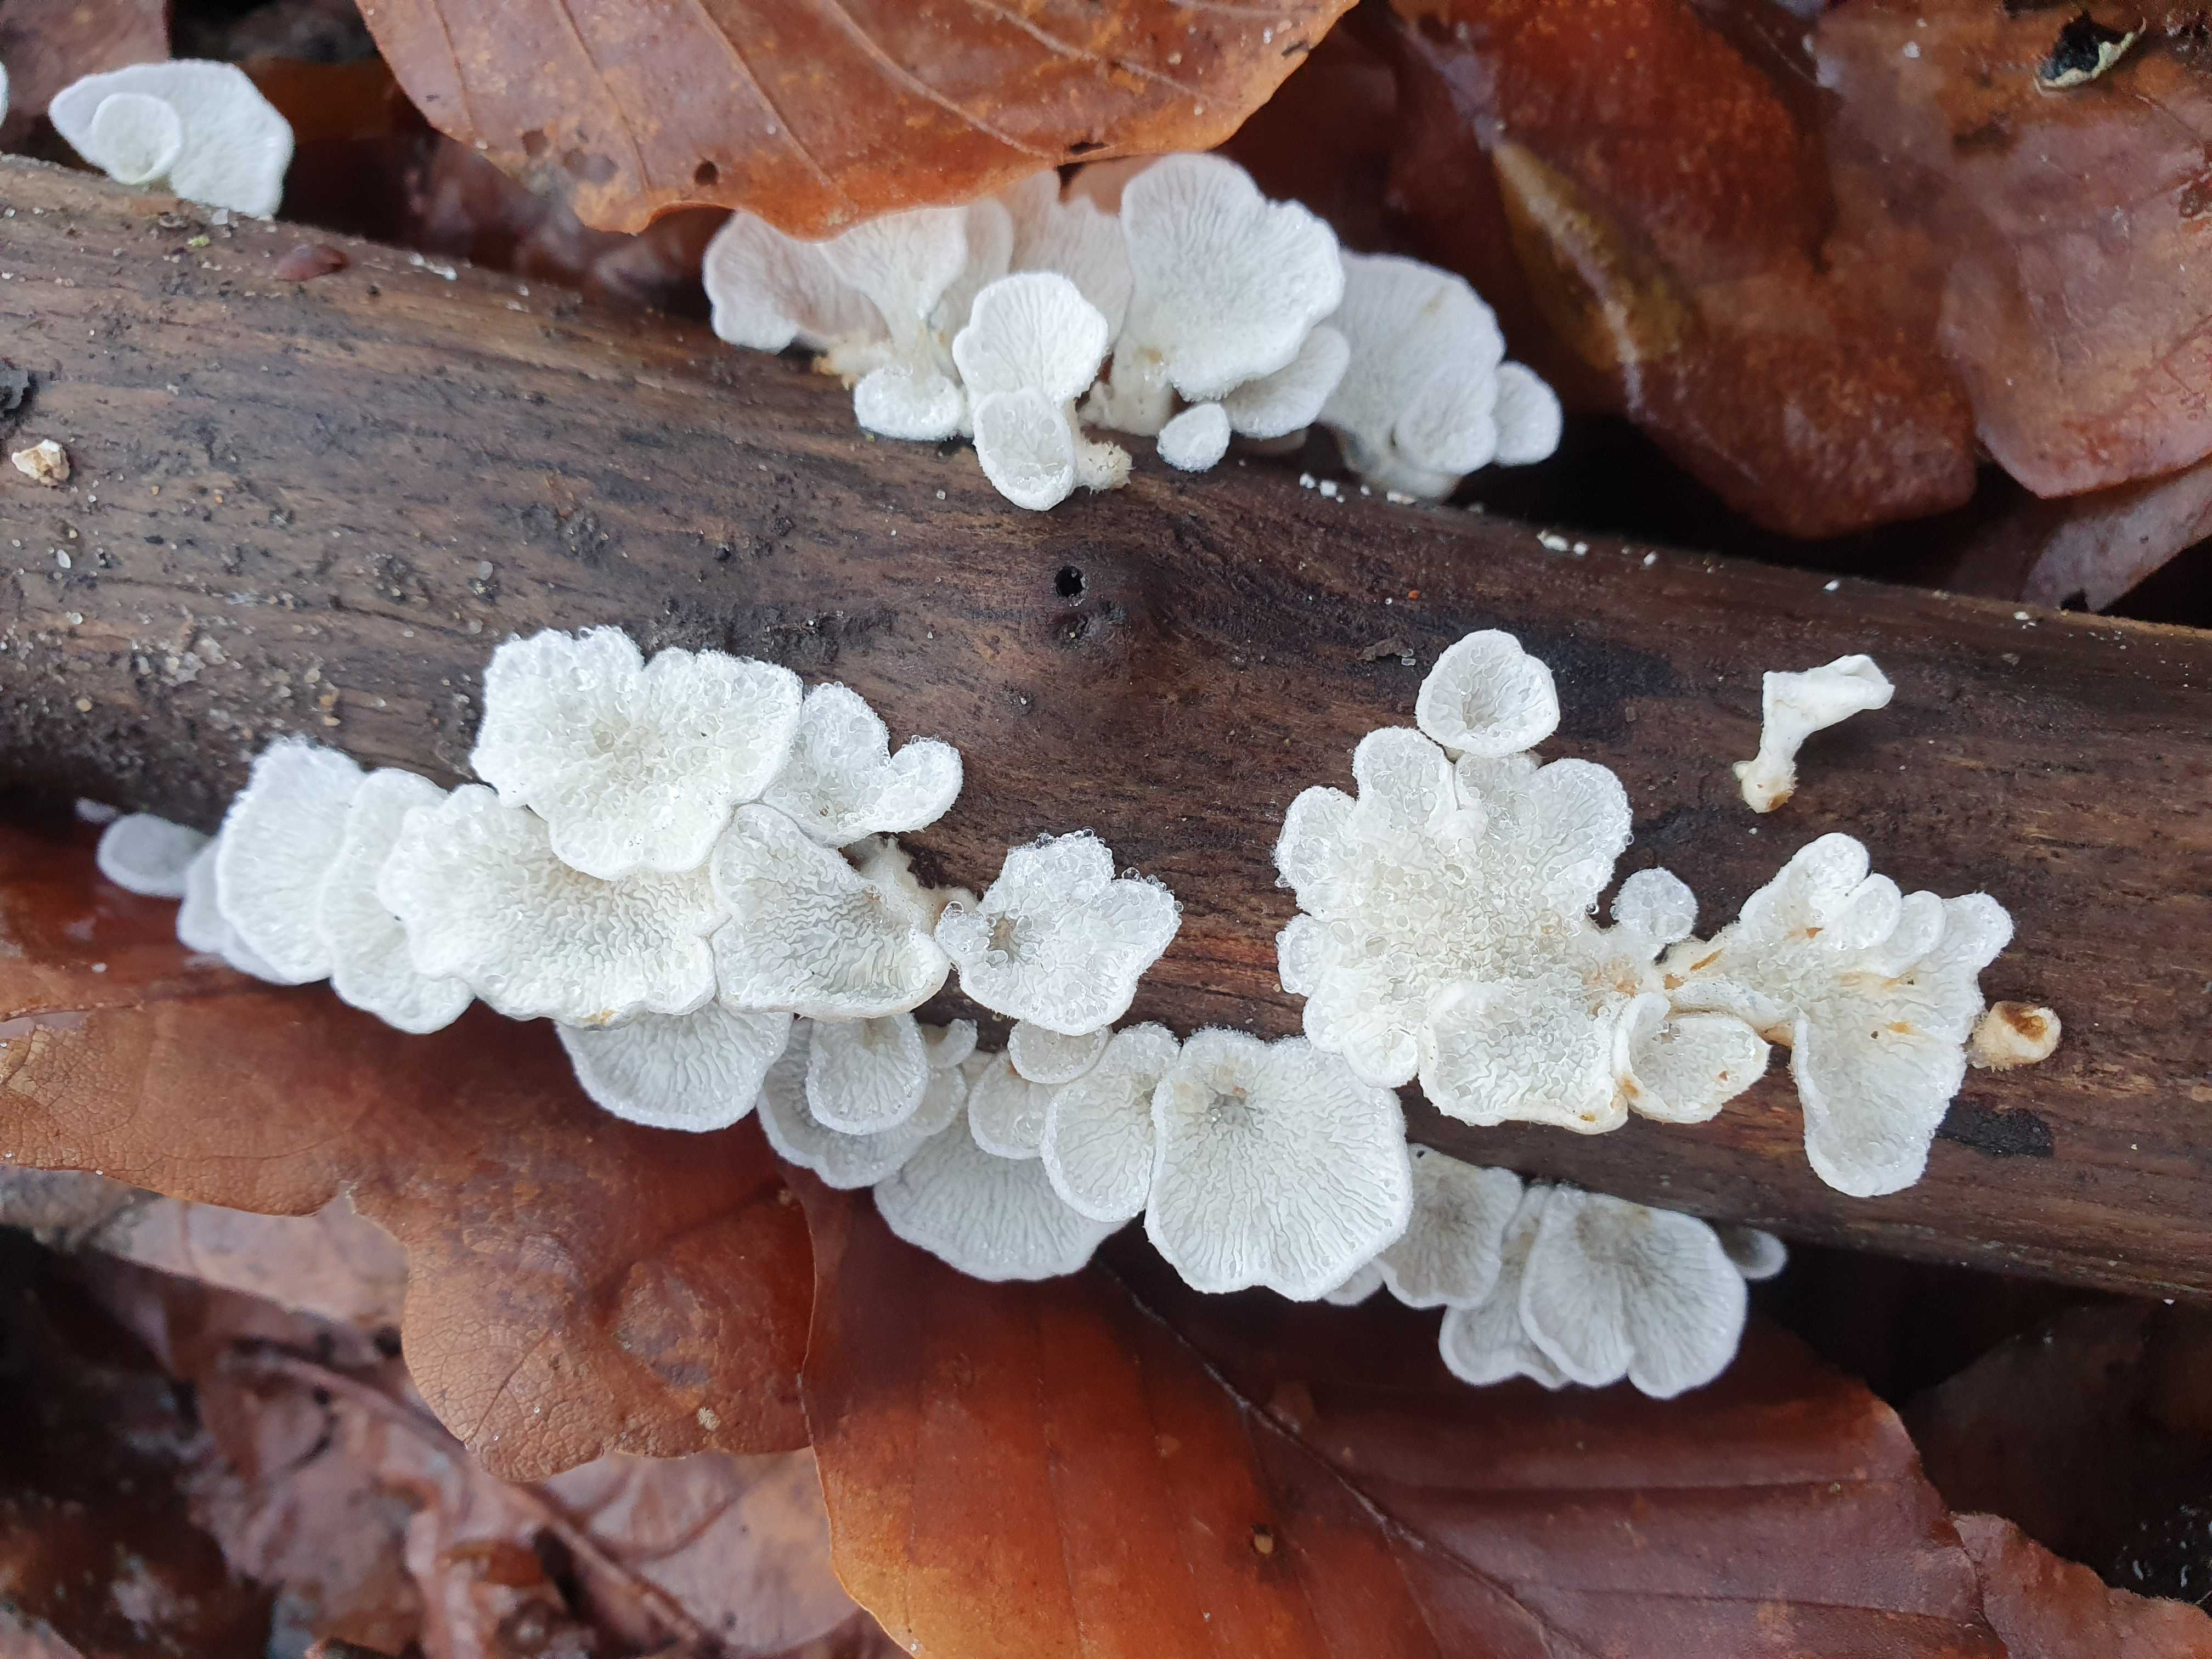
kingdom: Fungi
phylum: Basidiomycota
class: Agaricomycetes
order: Amylocorticiales
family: Amylocorticiaceae
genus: Plicaturopsis
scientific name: Plicaturopsis crispa
